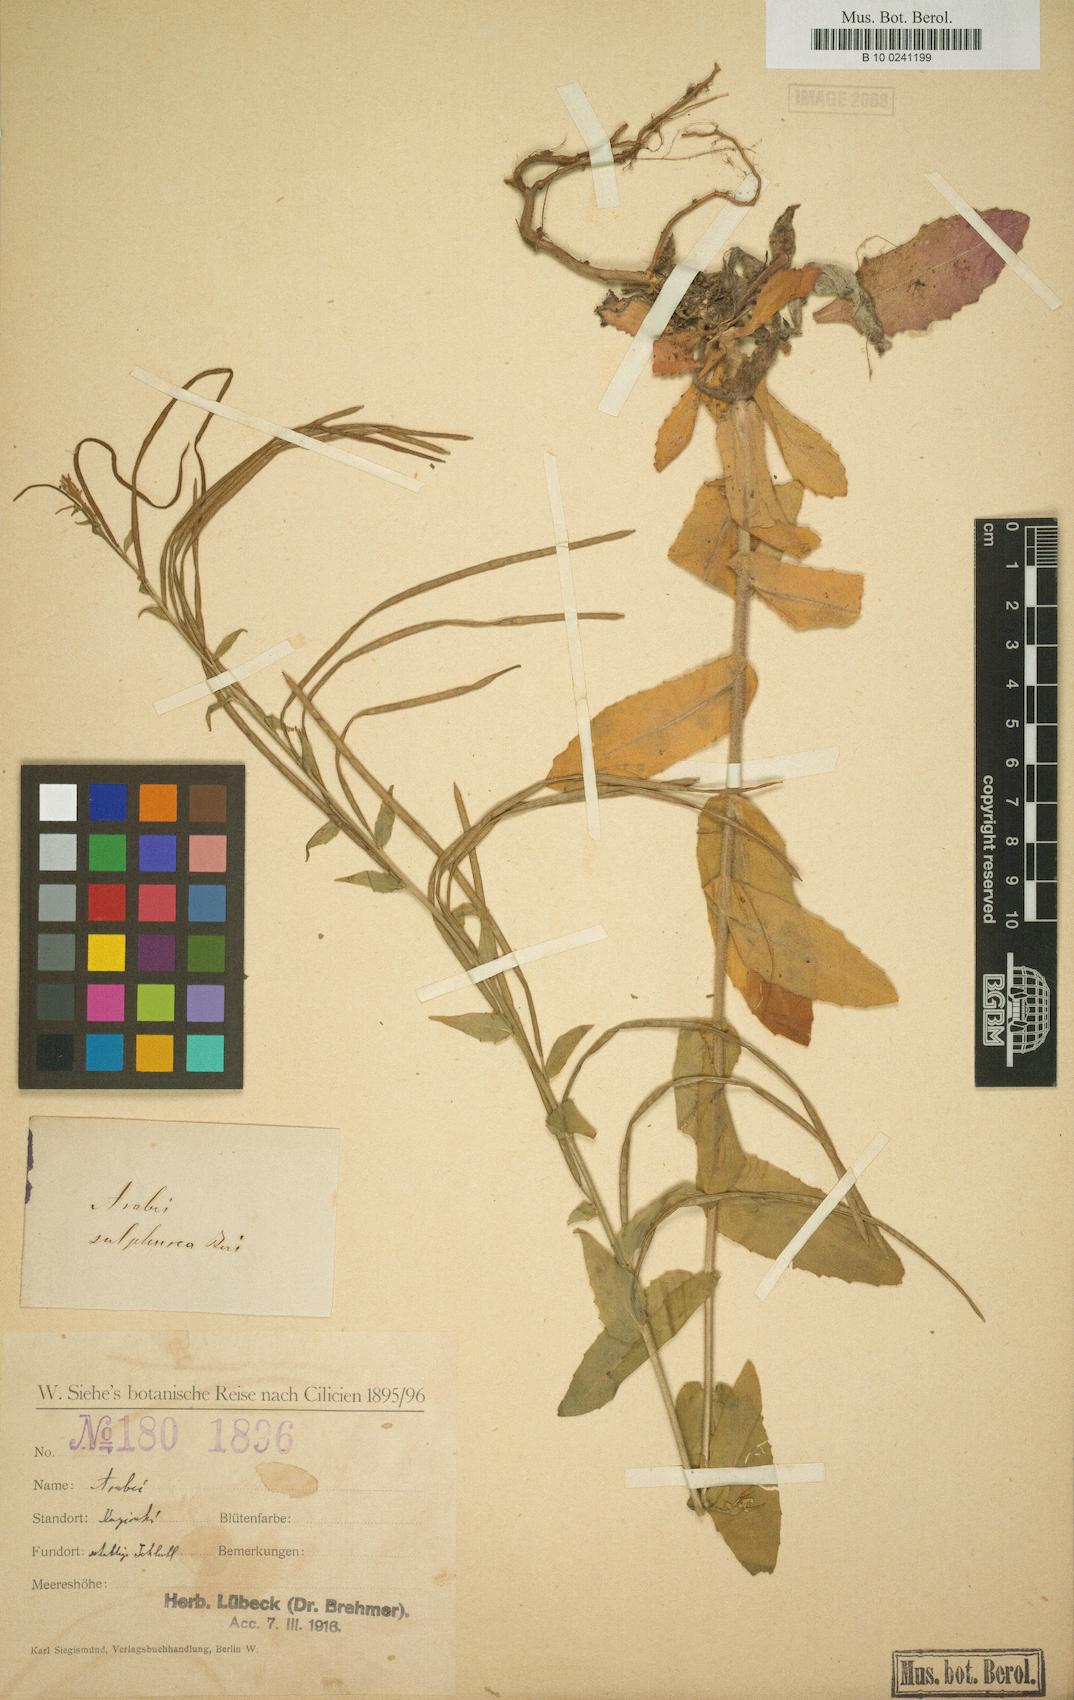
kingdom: Plantae
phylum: Tracheophyta
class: Magnoliopsida
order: Brassicales
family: Brassicaceae
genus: Draba
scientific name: Draba aucheri
